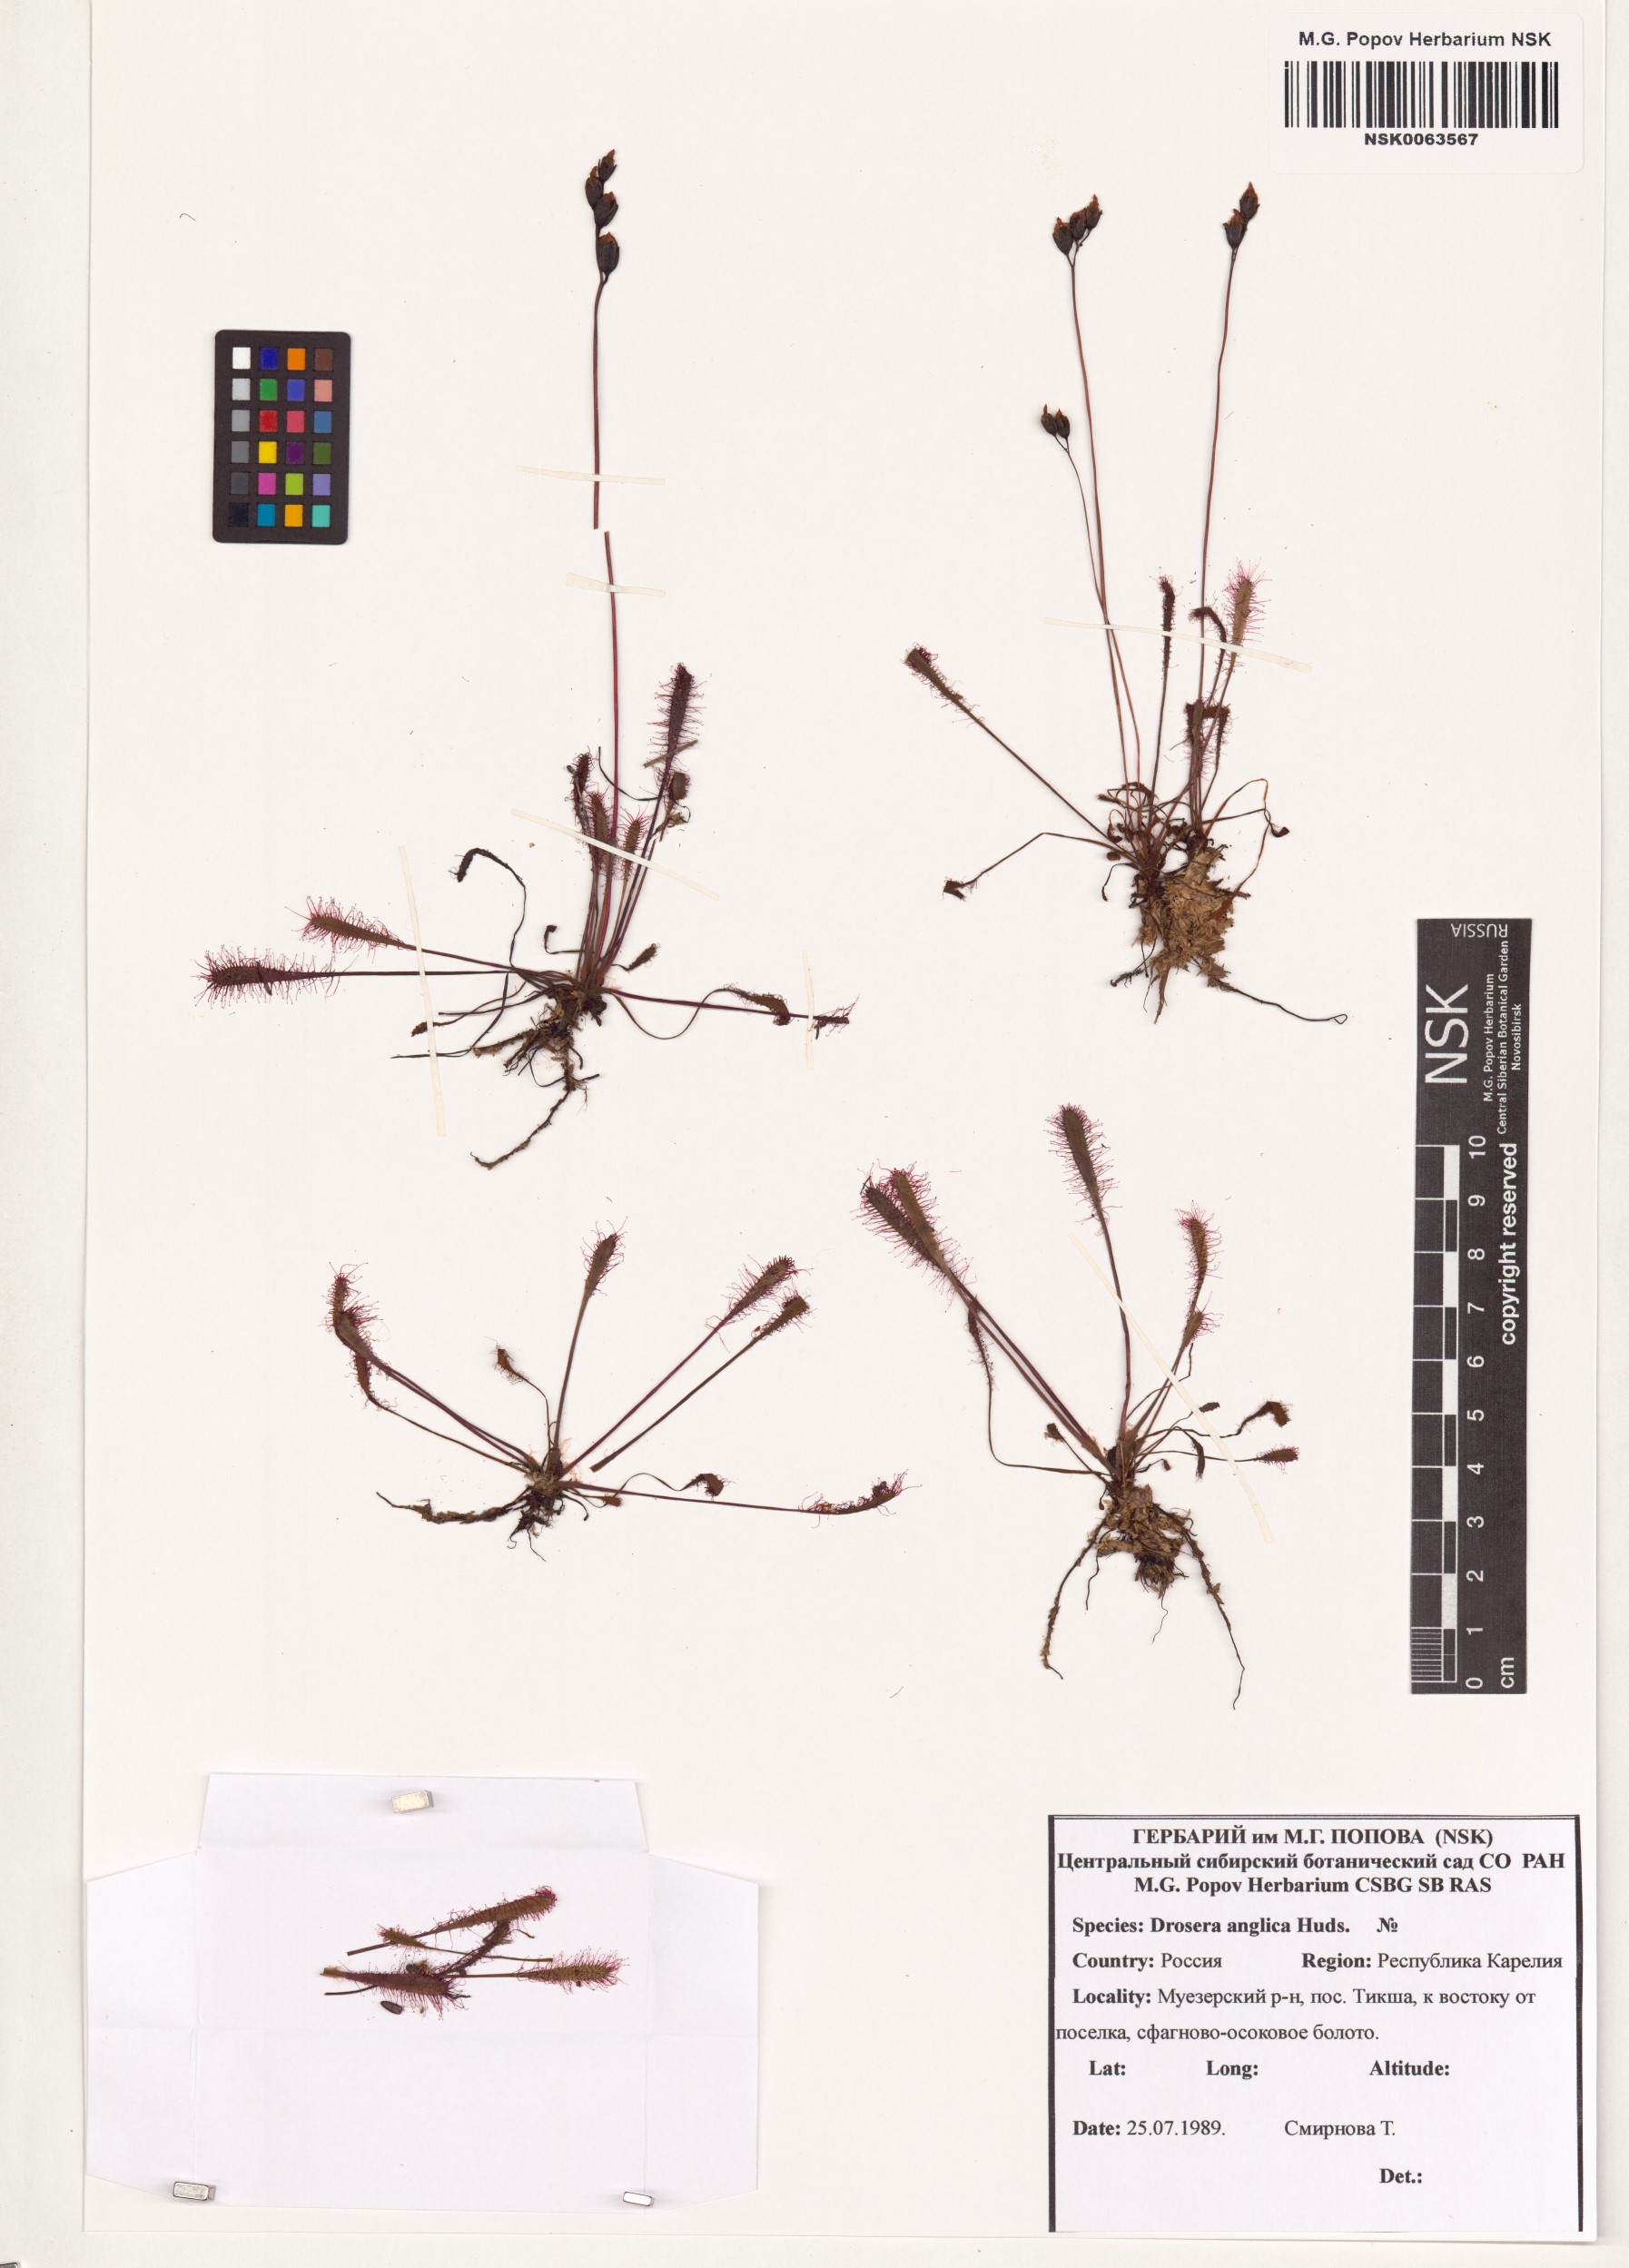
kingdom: Plantae
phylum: Tracheophyta
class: Magnoliopsida
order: Caryophyllales
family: Droseraceae
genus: Drosera
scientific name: Drosera anglica
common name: Great sundew
